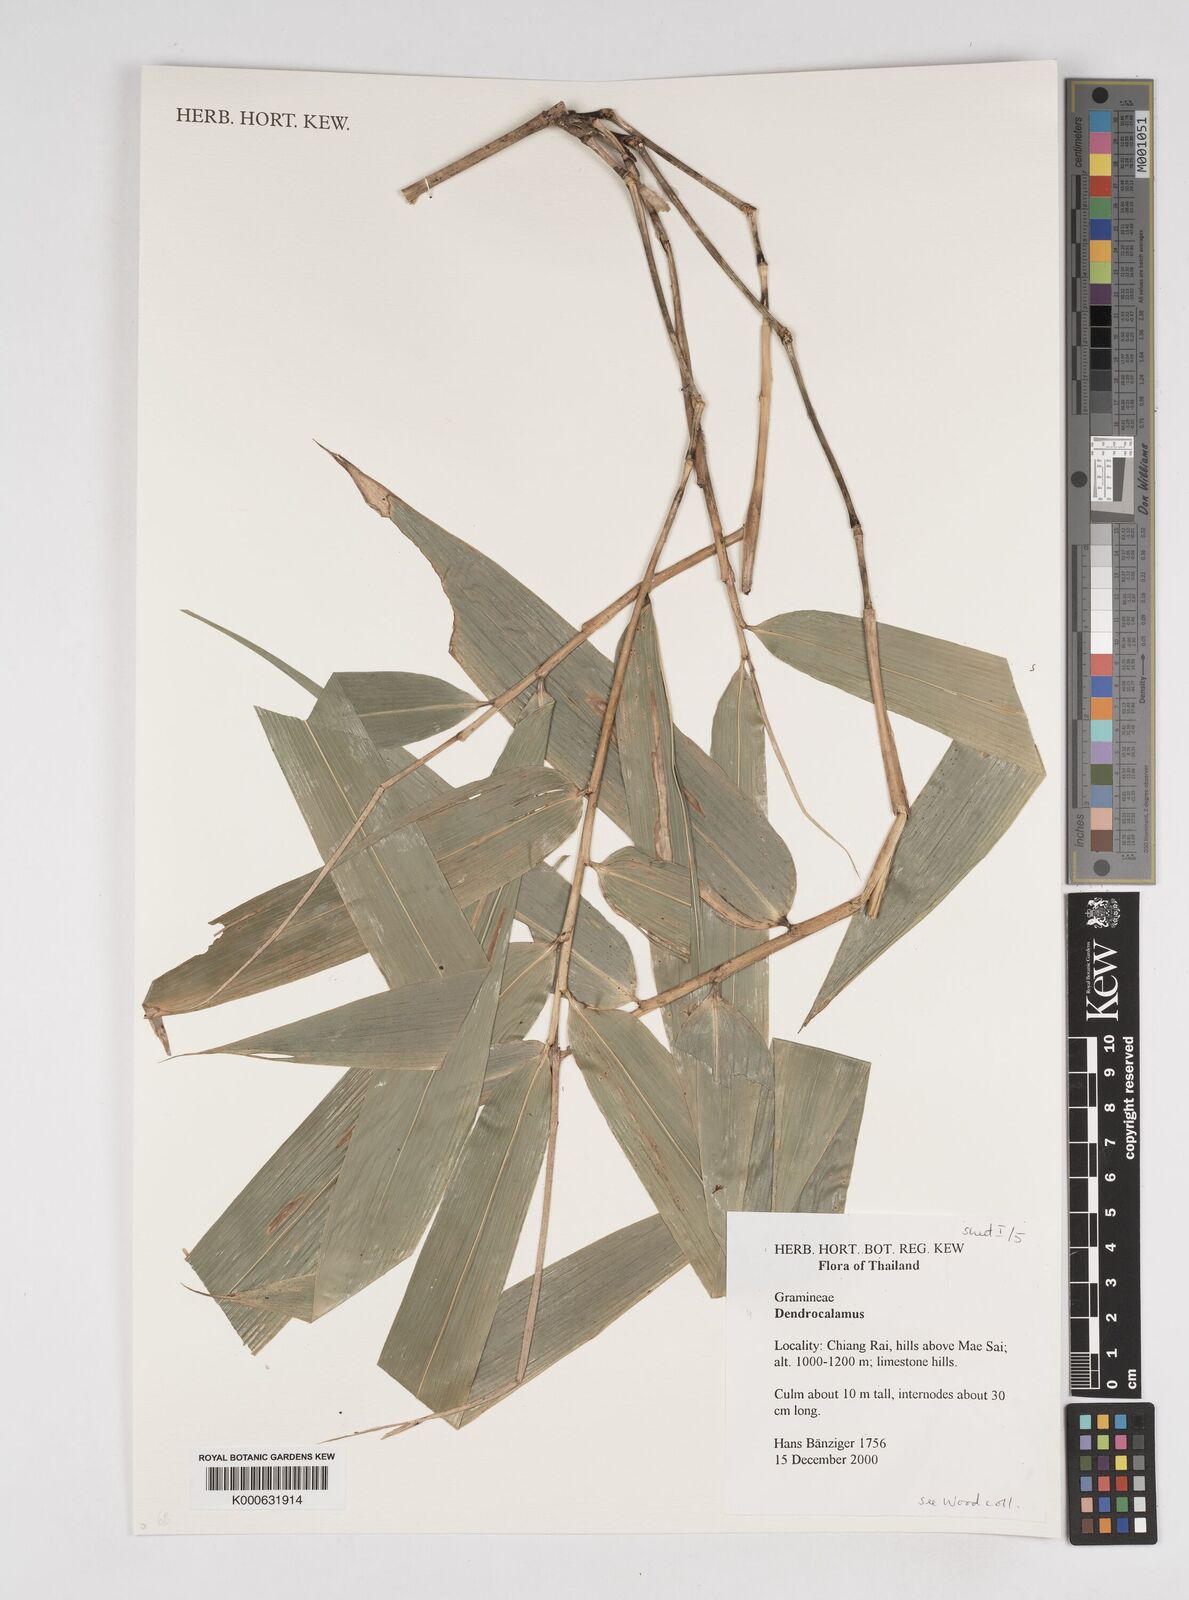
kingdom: Plantae
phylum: Tracheophyta
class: Liliopsida
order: Poales
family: Poaceae
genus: Dendrocalamus
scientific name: Dendrocalamus brandisii
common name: Velvetleaf bamboo
